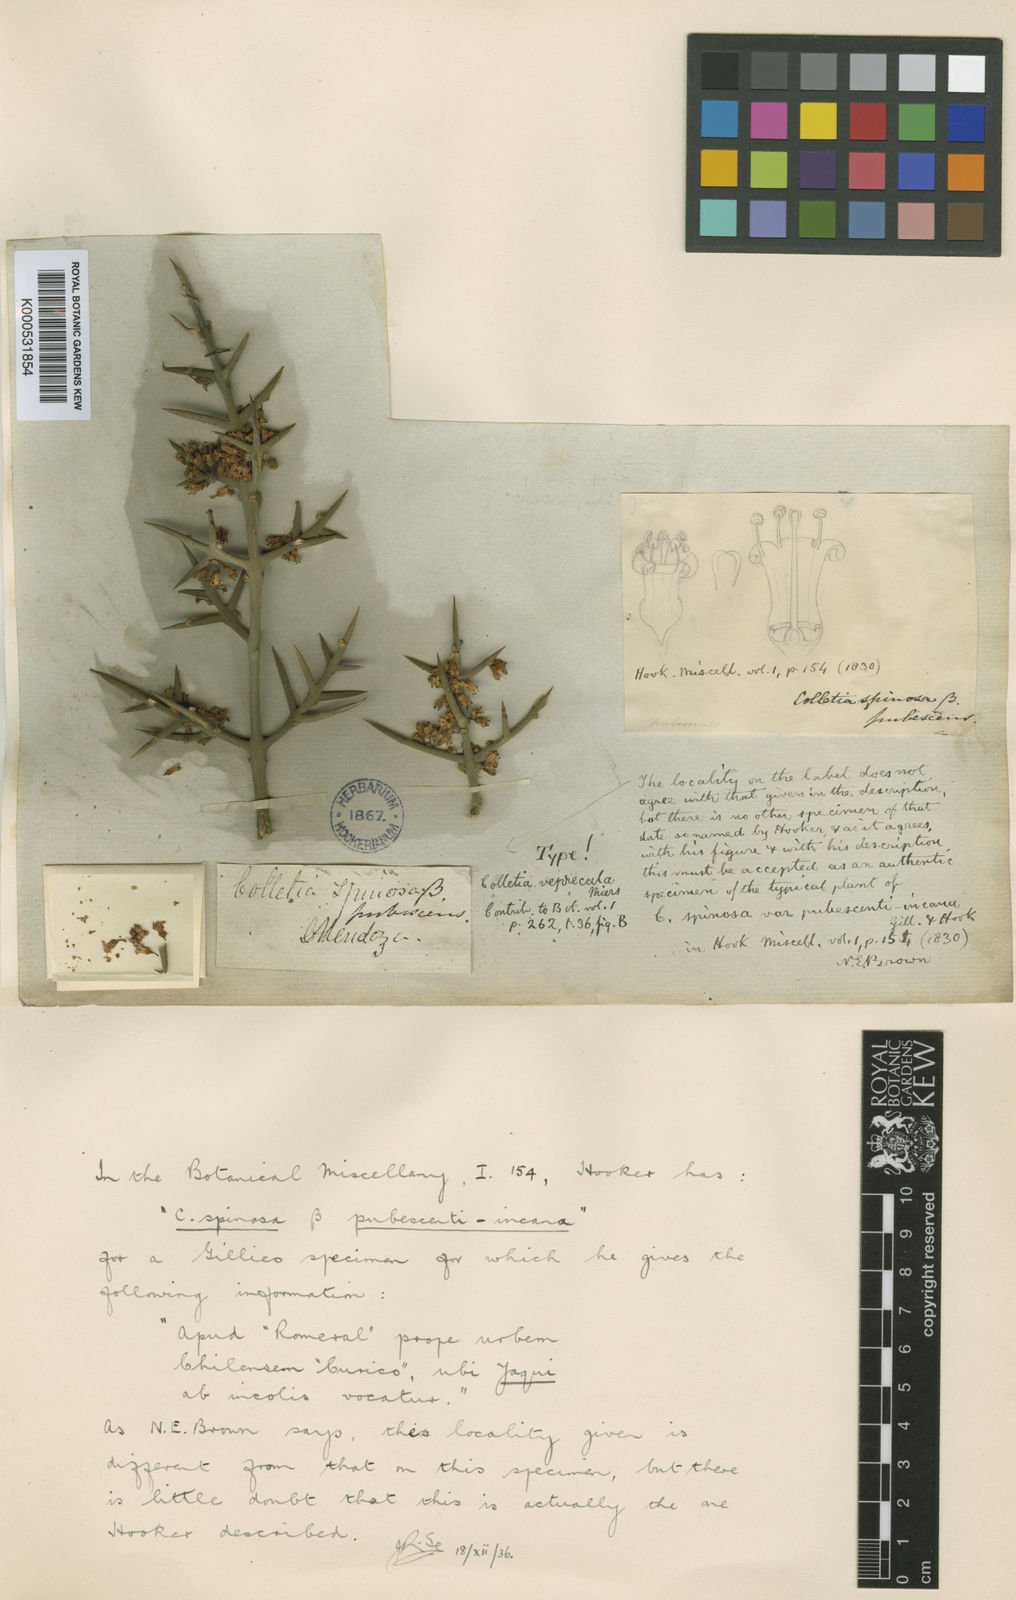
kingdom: Plantae
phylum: Tracheophyta
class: Magnoliopsida
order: Rosales
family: Rhamnaceae
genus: Colletia
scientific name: Colletia hystrix
